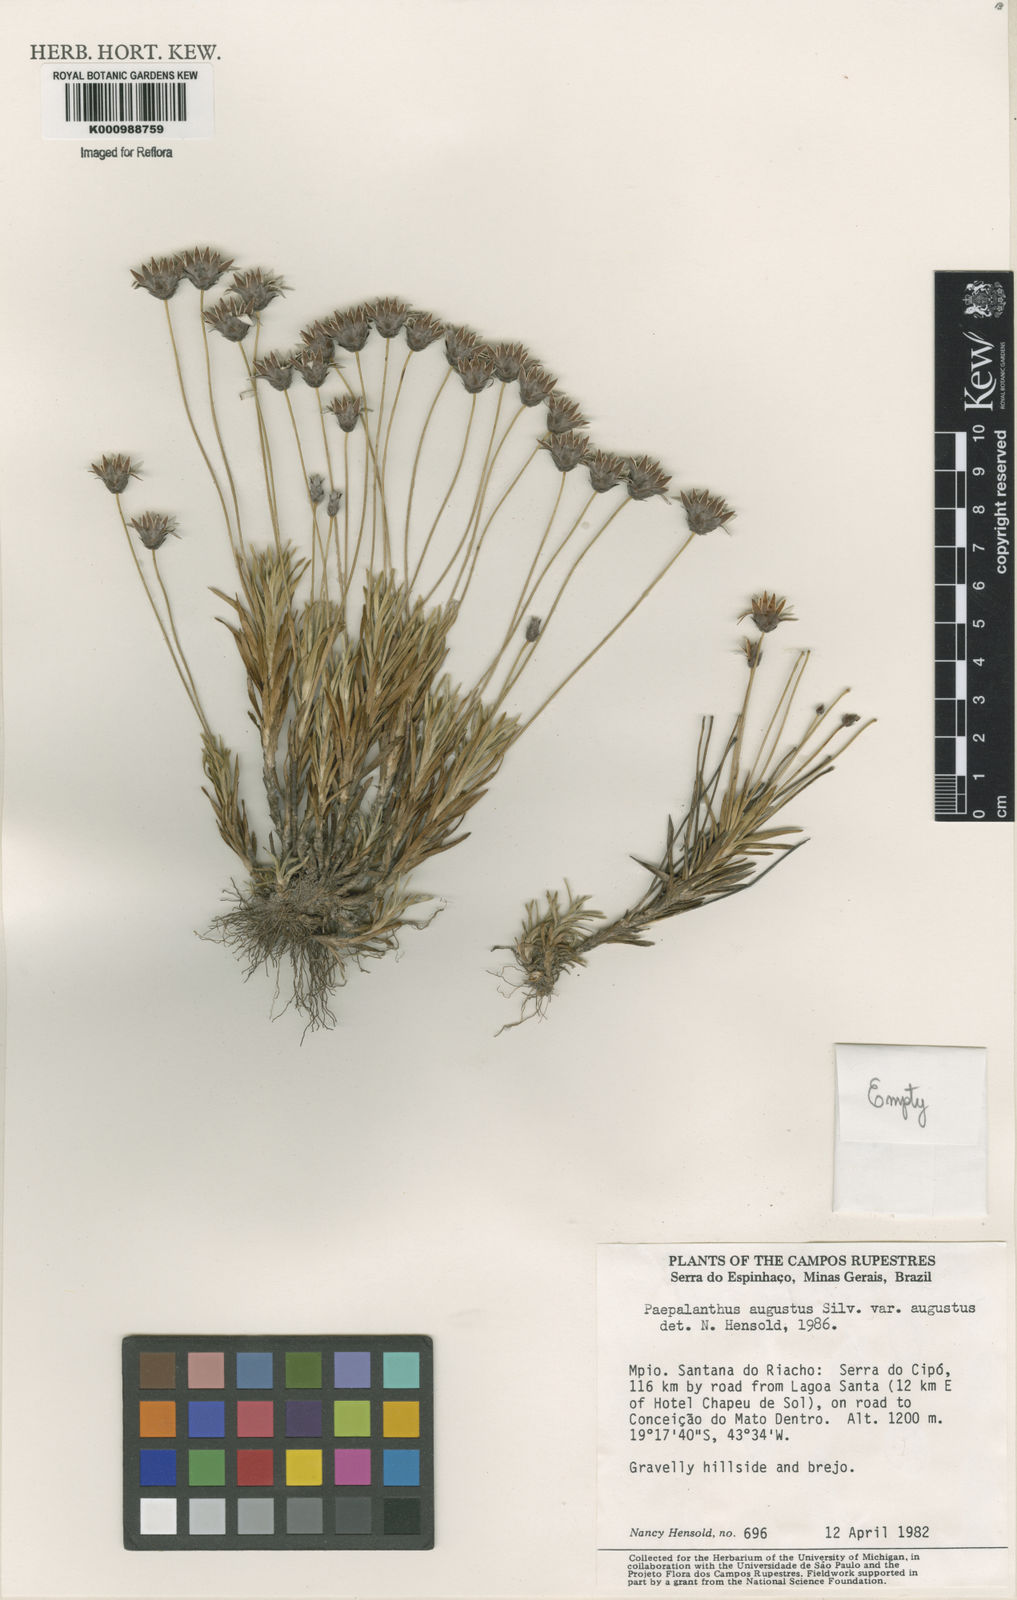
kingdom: Plantae
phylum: Tracheophyta
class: Liliopsida
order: Poales
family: Eriocaulaceae
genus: Paepalanthus
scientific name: Paepalanthus augustus
